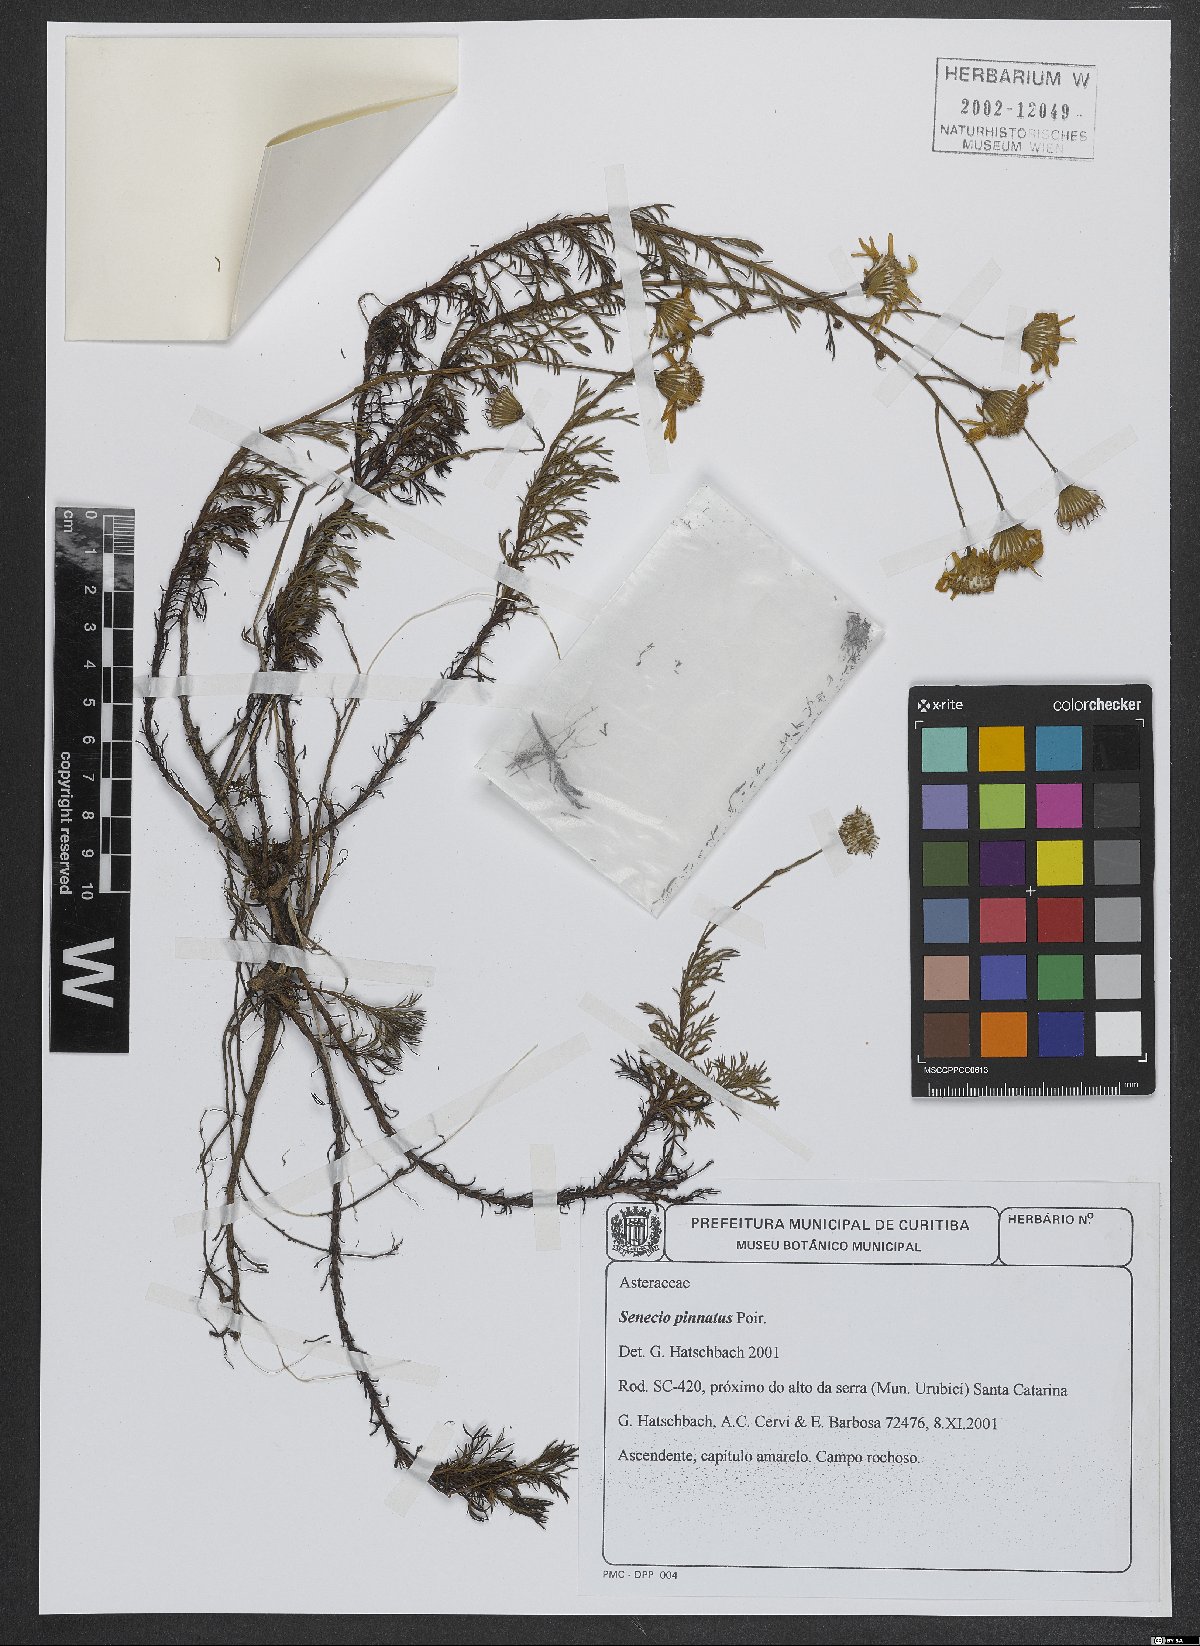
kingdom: Plantae
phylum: Tracheophyta
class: Magnoliopsida
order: Asterales
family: Asteraceae
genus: Senecio
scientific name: Senecio platensis
